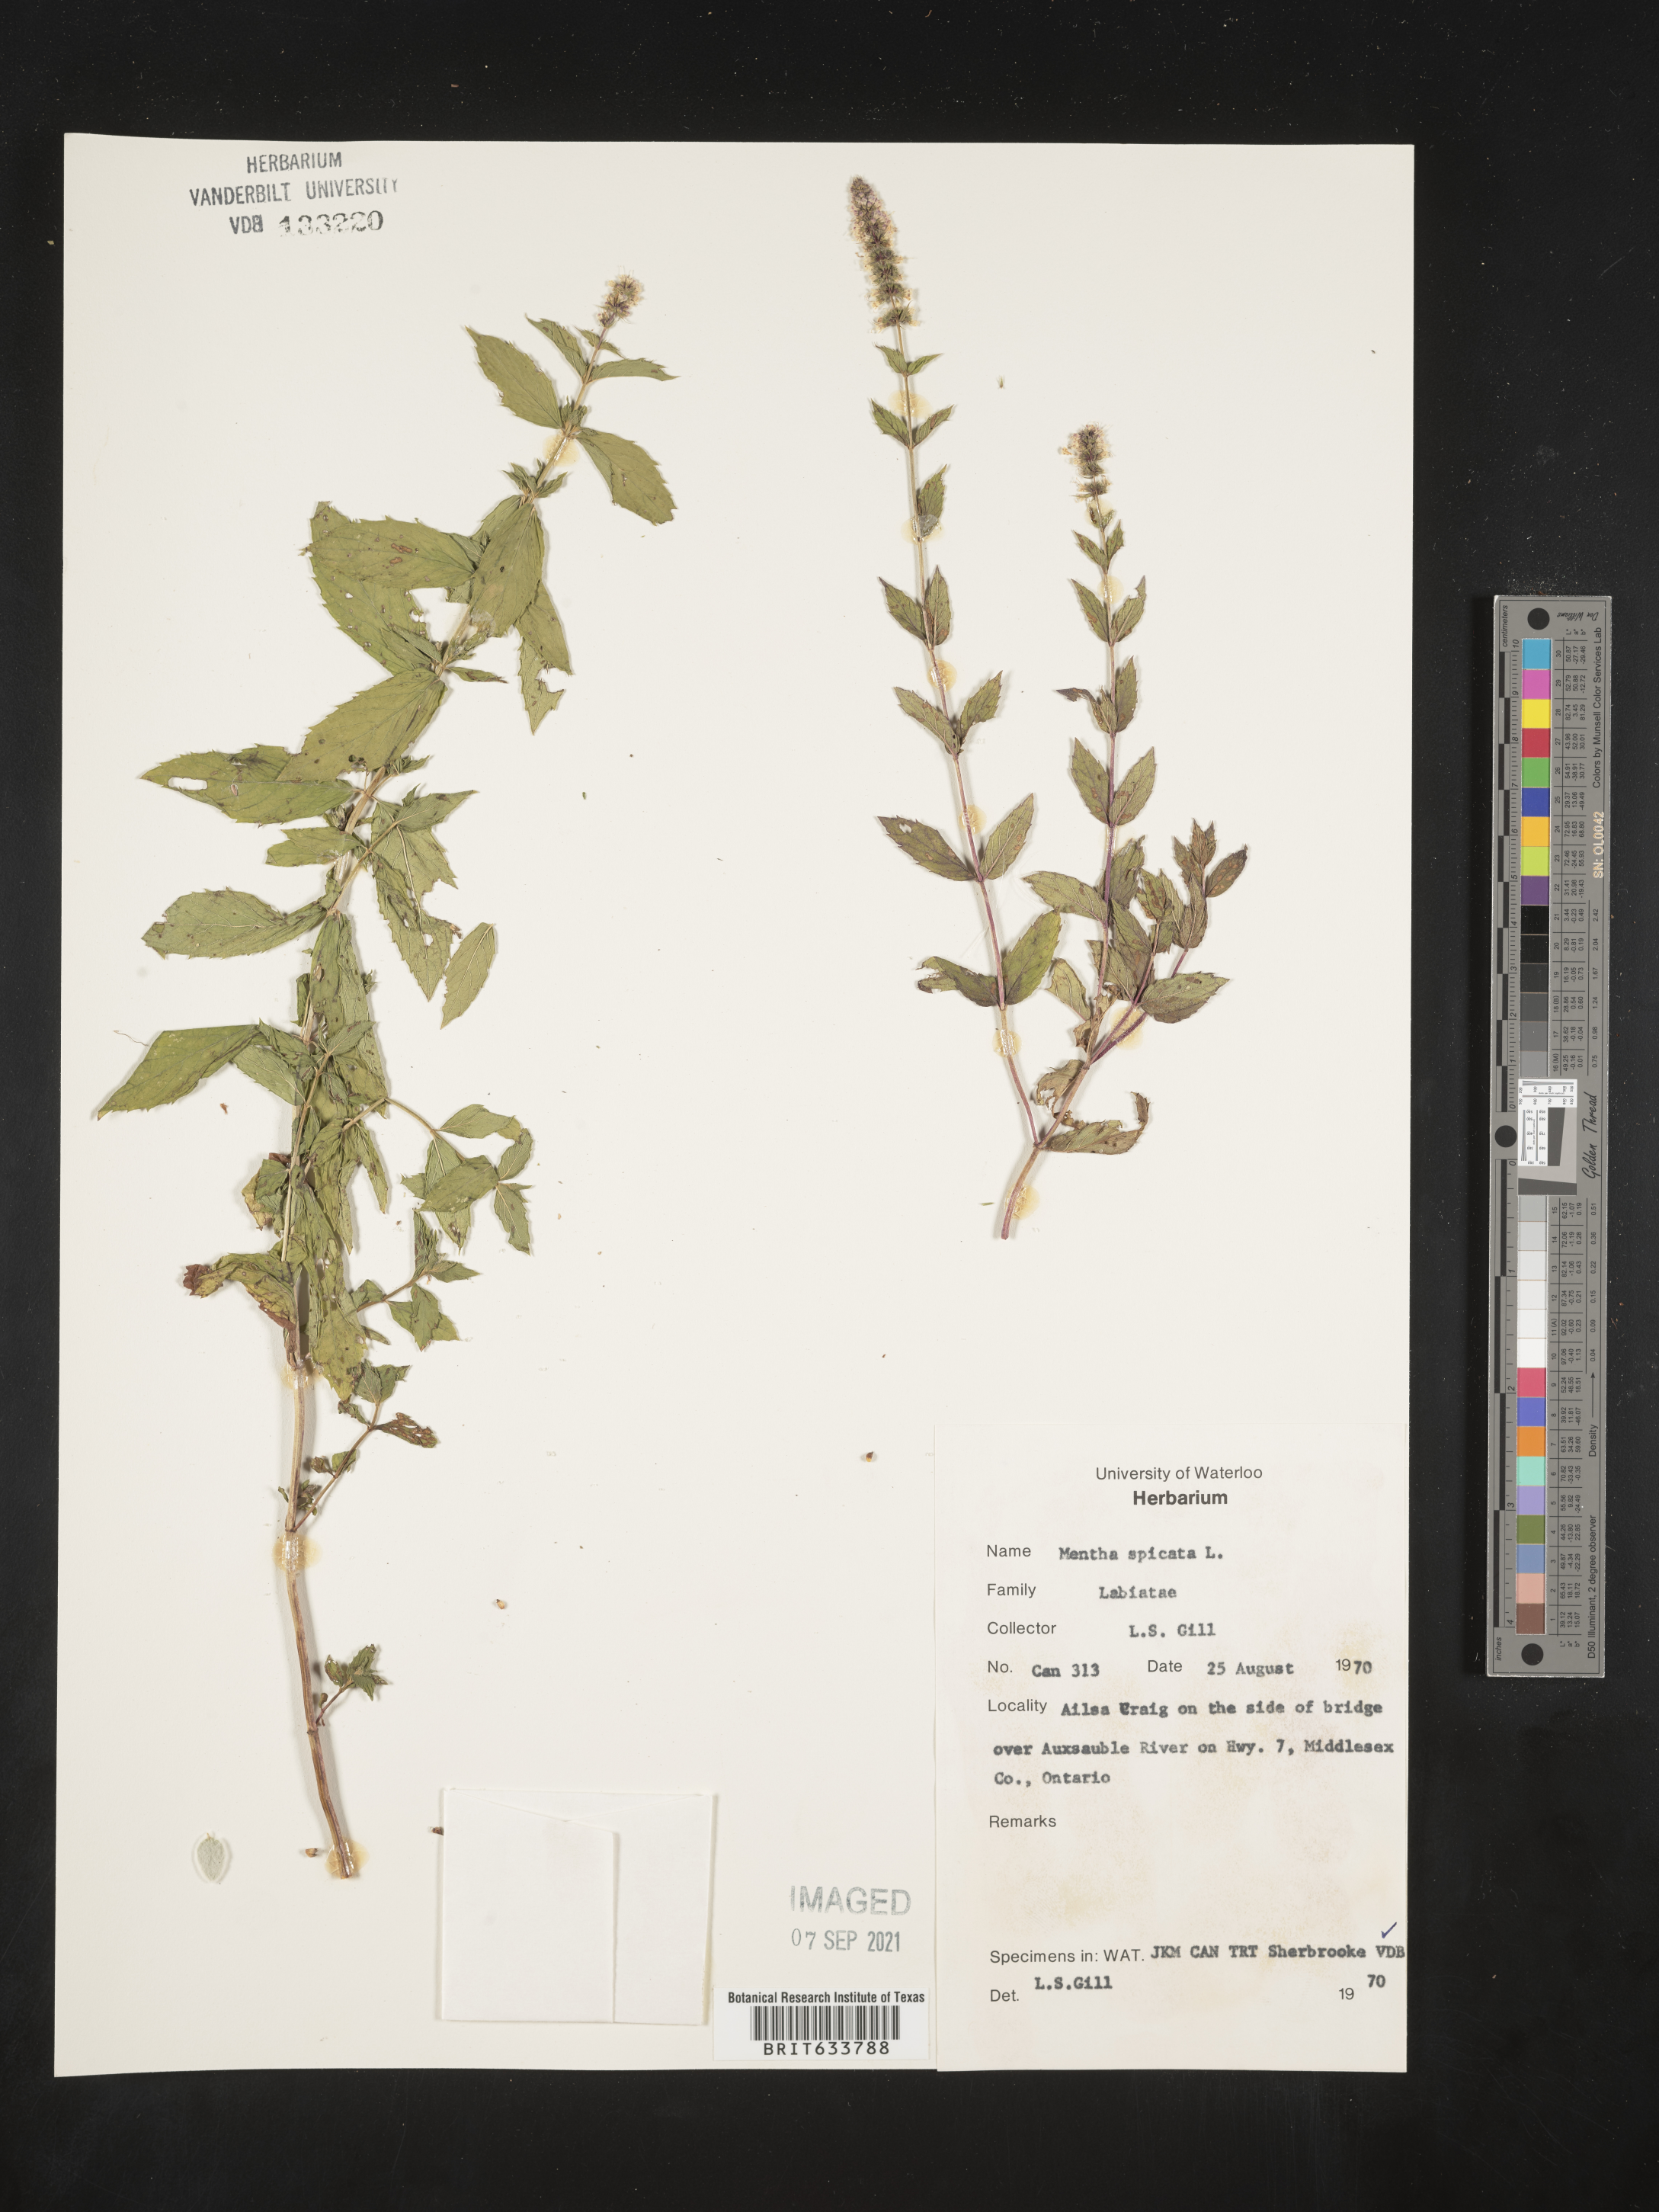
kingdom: Plantae
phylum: Tracheophyta
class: Magnoliopsida
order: Lamiales
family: Lamiaceae
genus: Mentha
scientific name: Mentha
